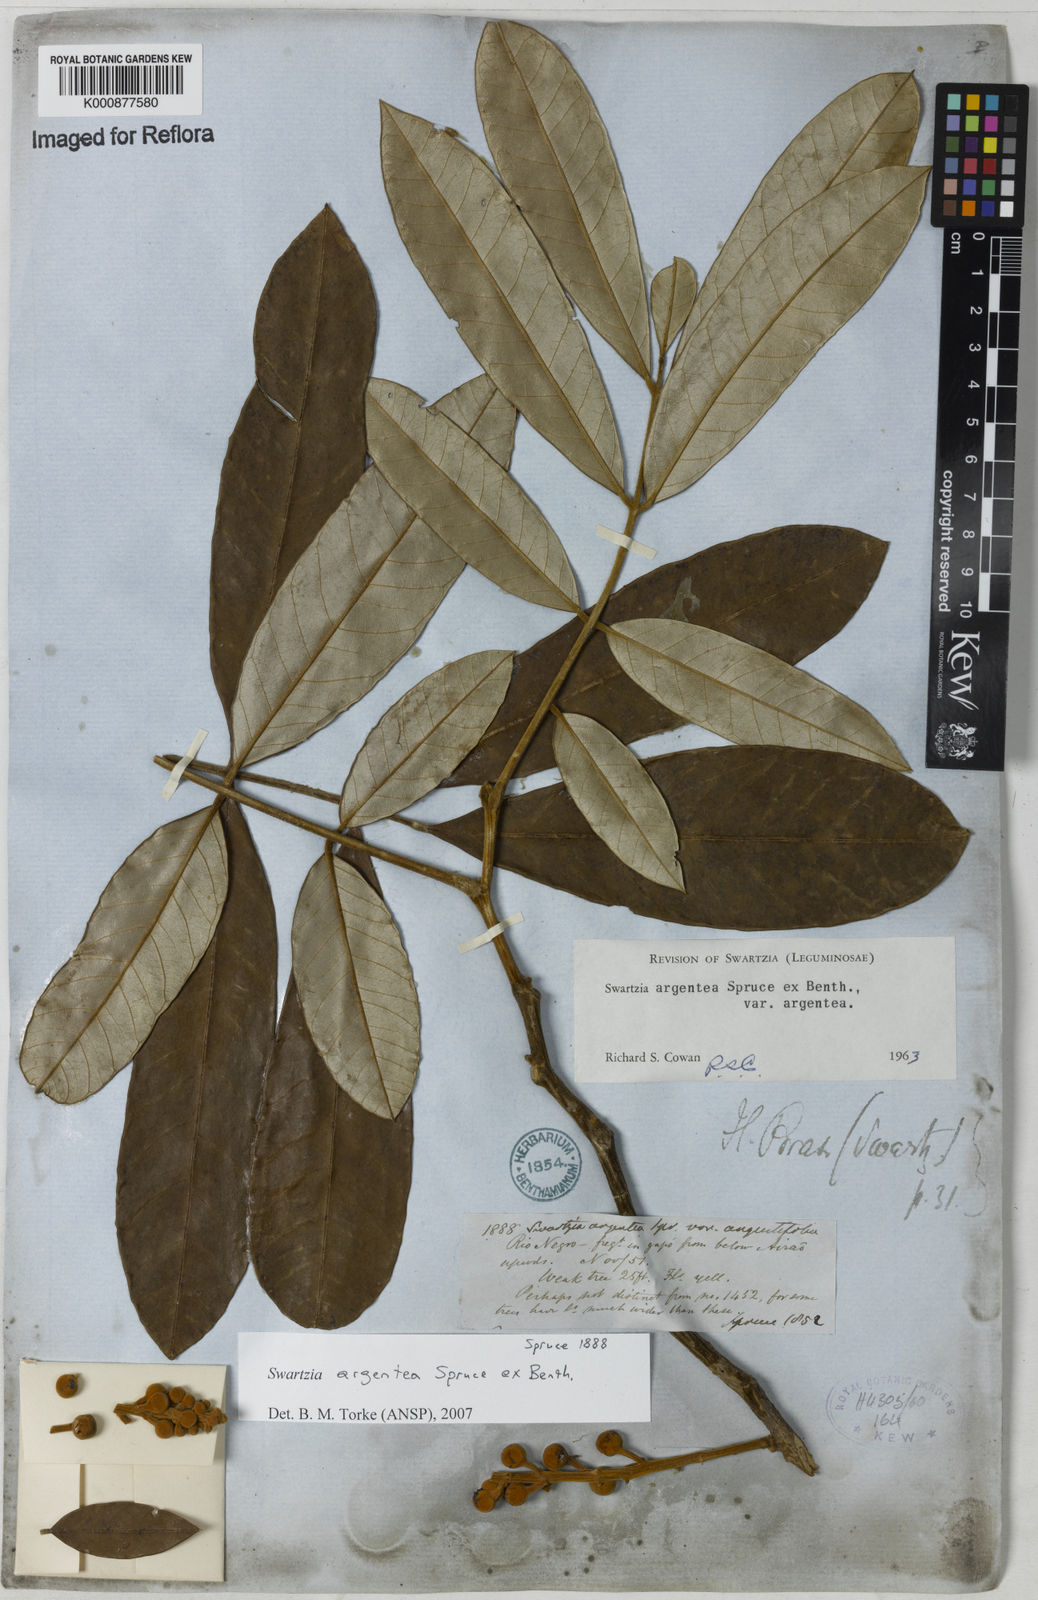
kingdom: Plantae
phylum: Tracheophyta
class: Magnoliopsida
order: Fabales
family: Fabaceae
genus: Swartzia
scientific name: Swartzia argentea
